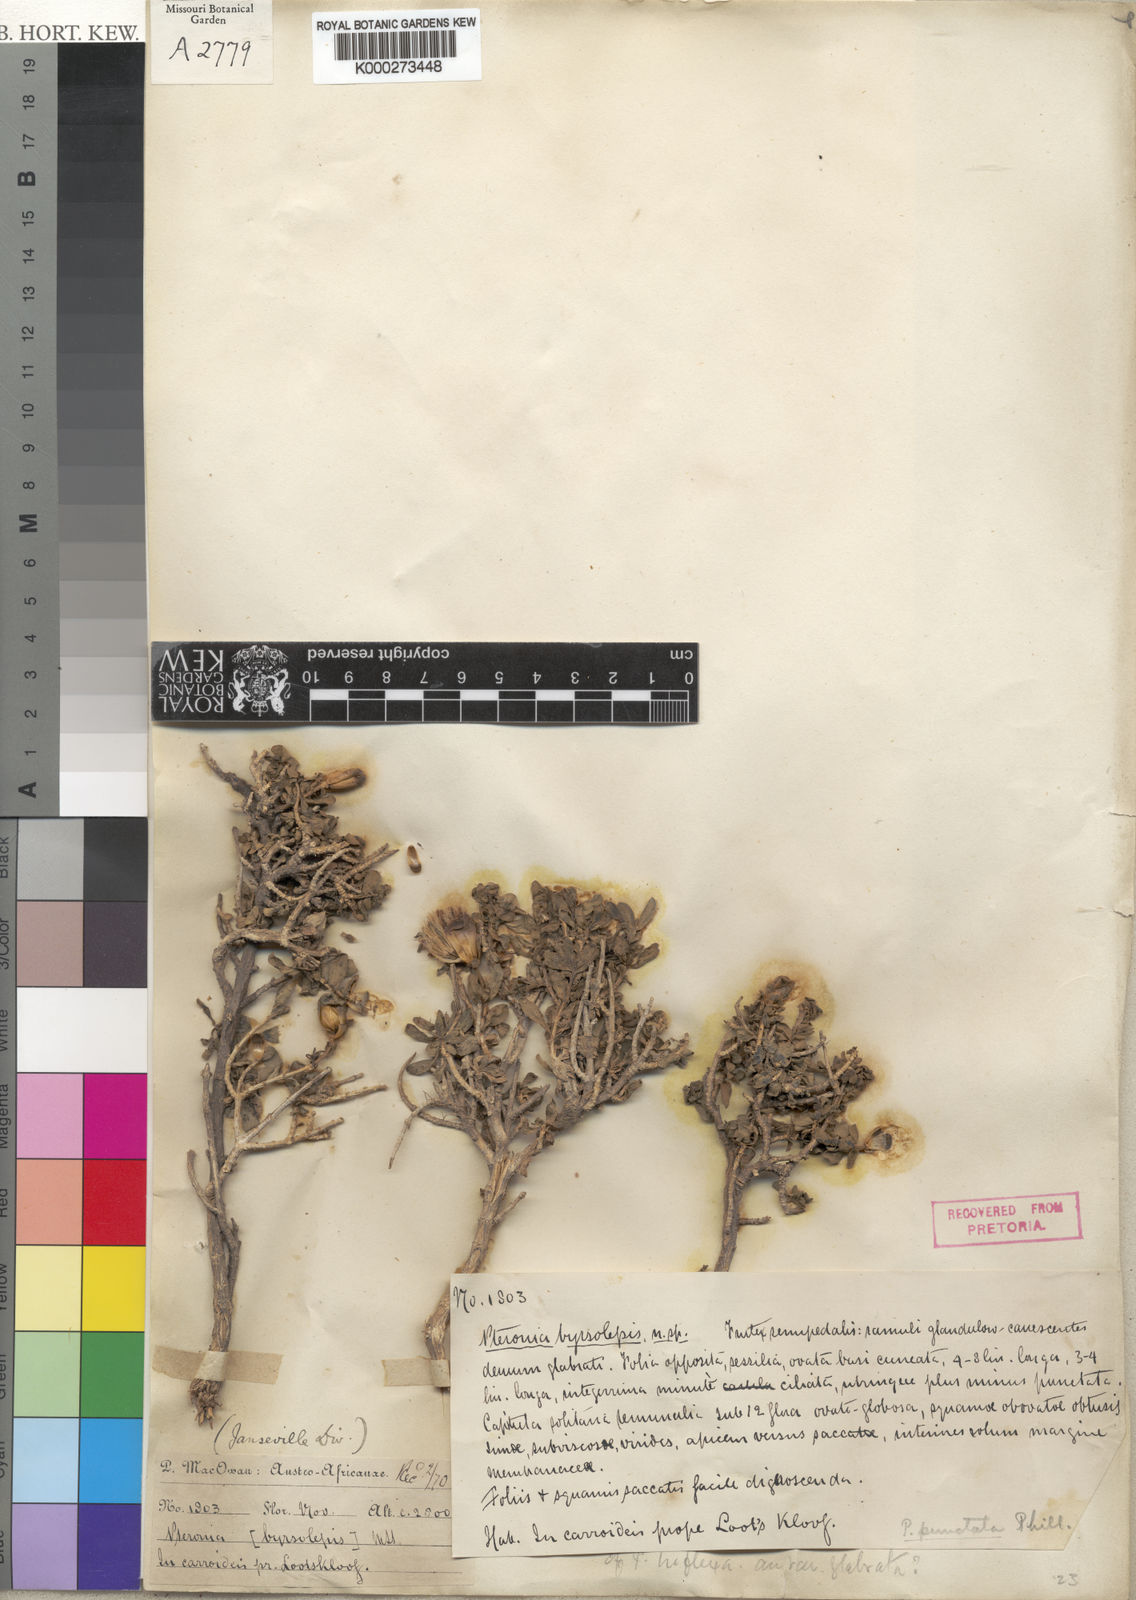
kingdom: Plantae
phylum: Tracheophyta
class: Magnoliopsida
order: Asterales
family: Asteraceae
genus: Pteronia
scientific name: Pteronia punctata
